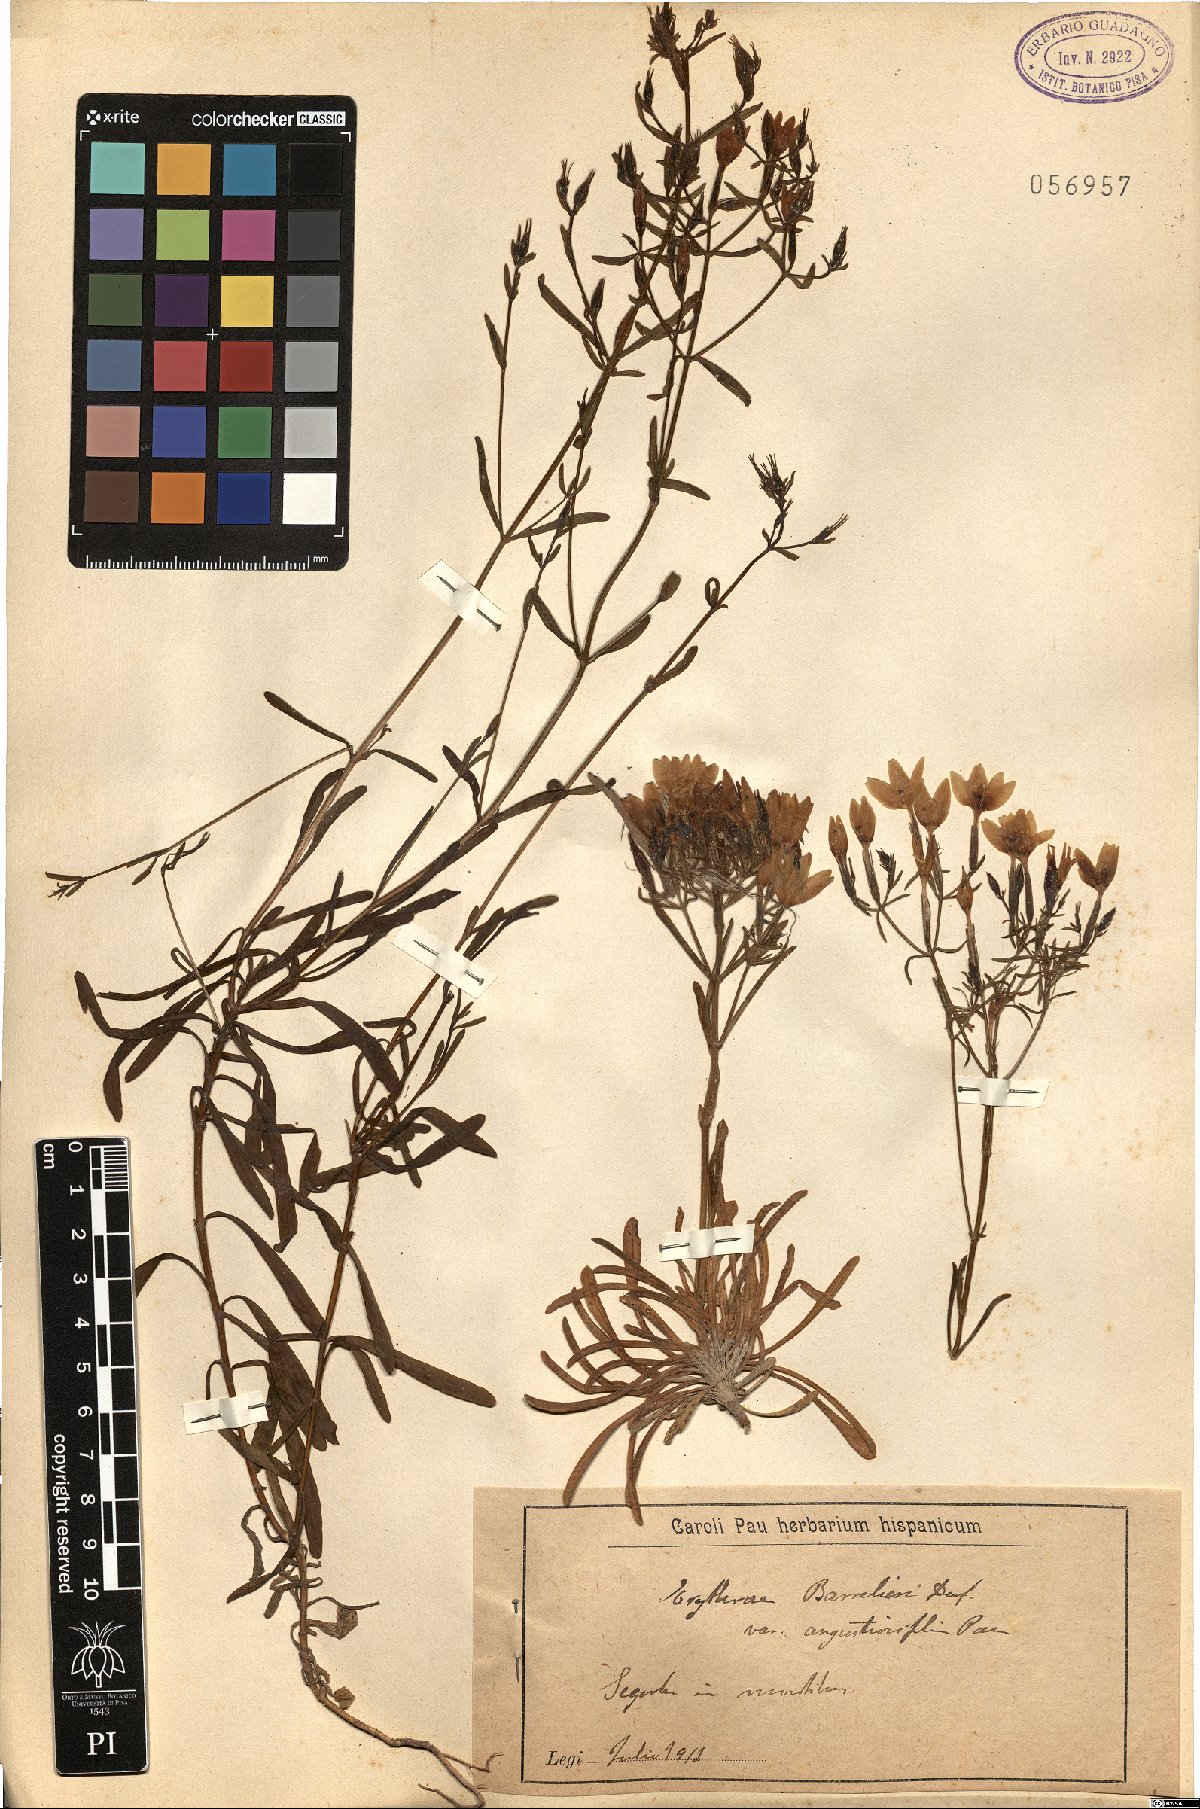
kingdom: Plantae
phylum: Tracheophyta
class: Magnoliopsida
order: Gentianales
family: Gentianaceae
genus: Centaurium
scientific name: Centaurium quadrifolium
